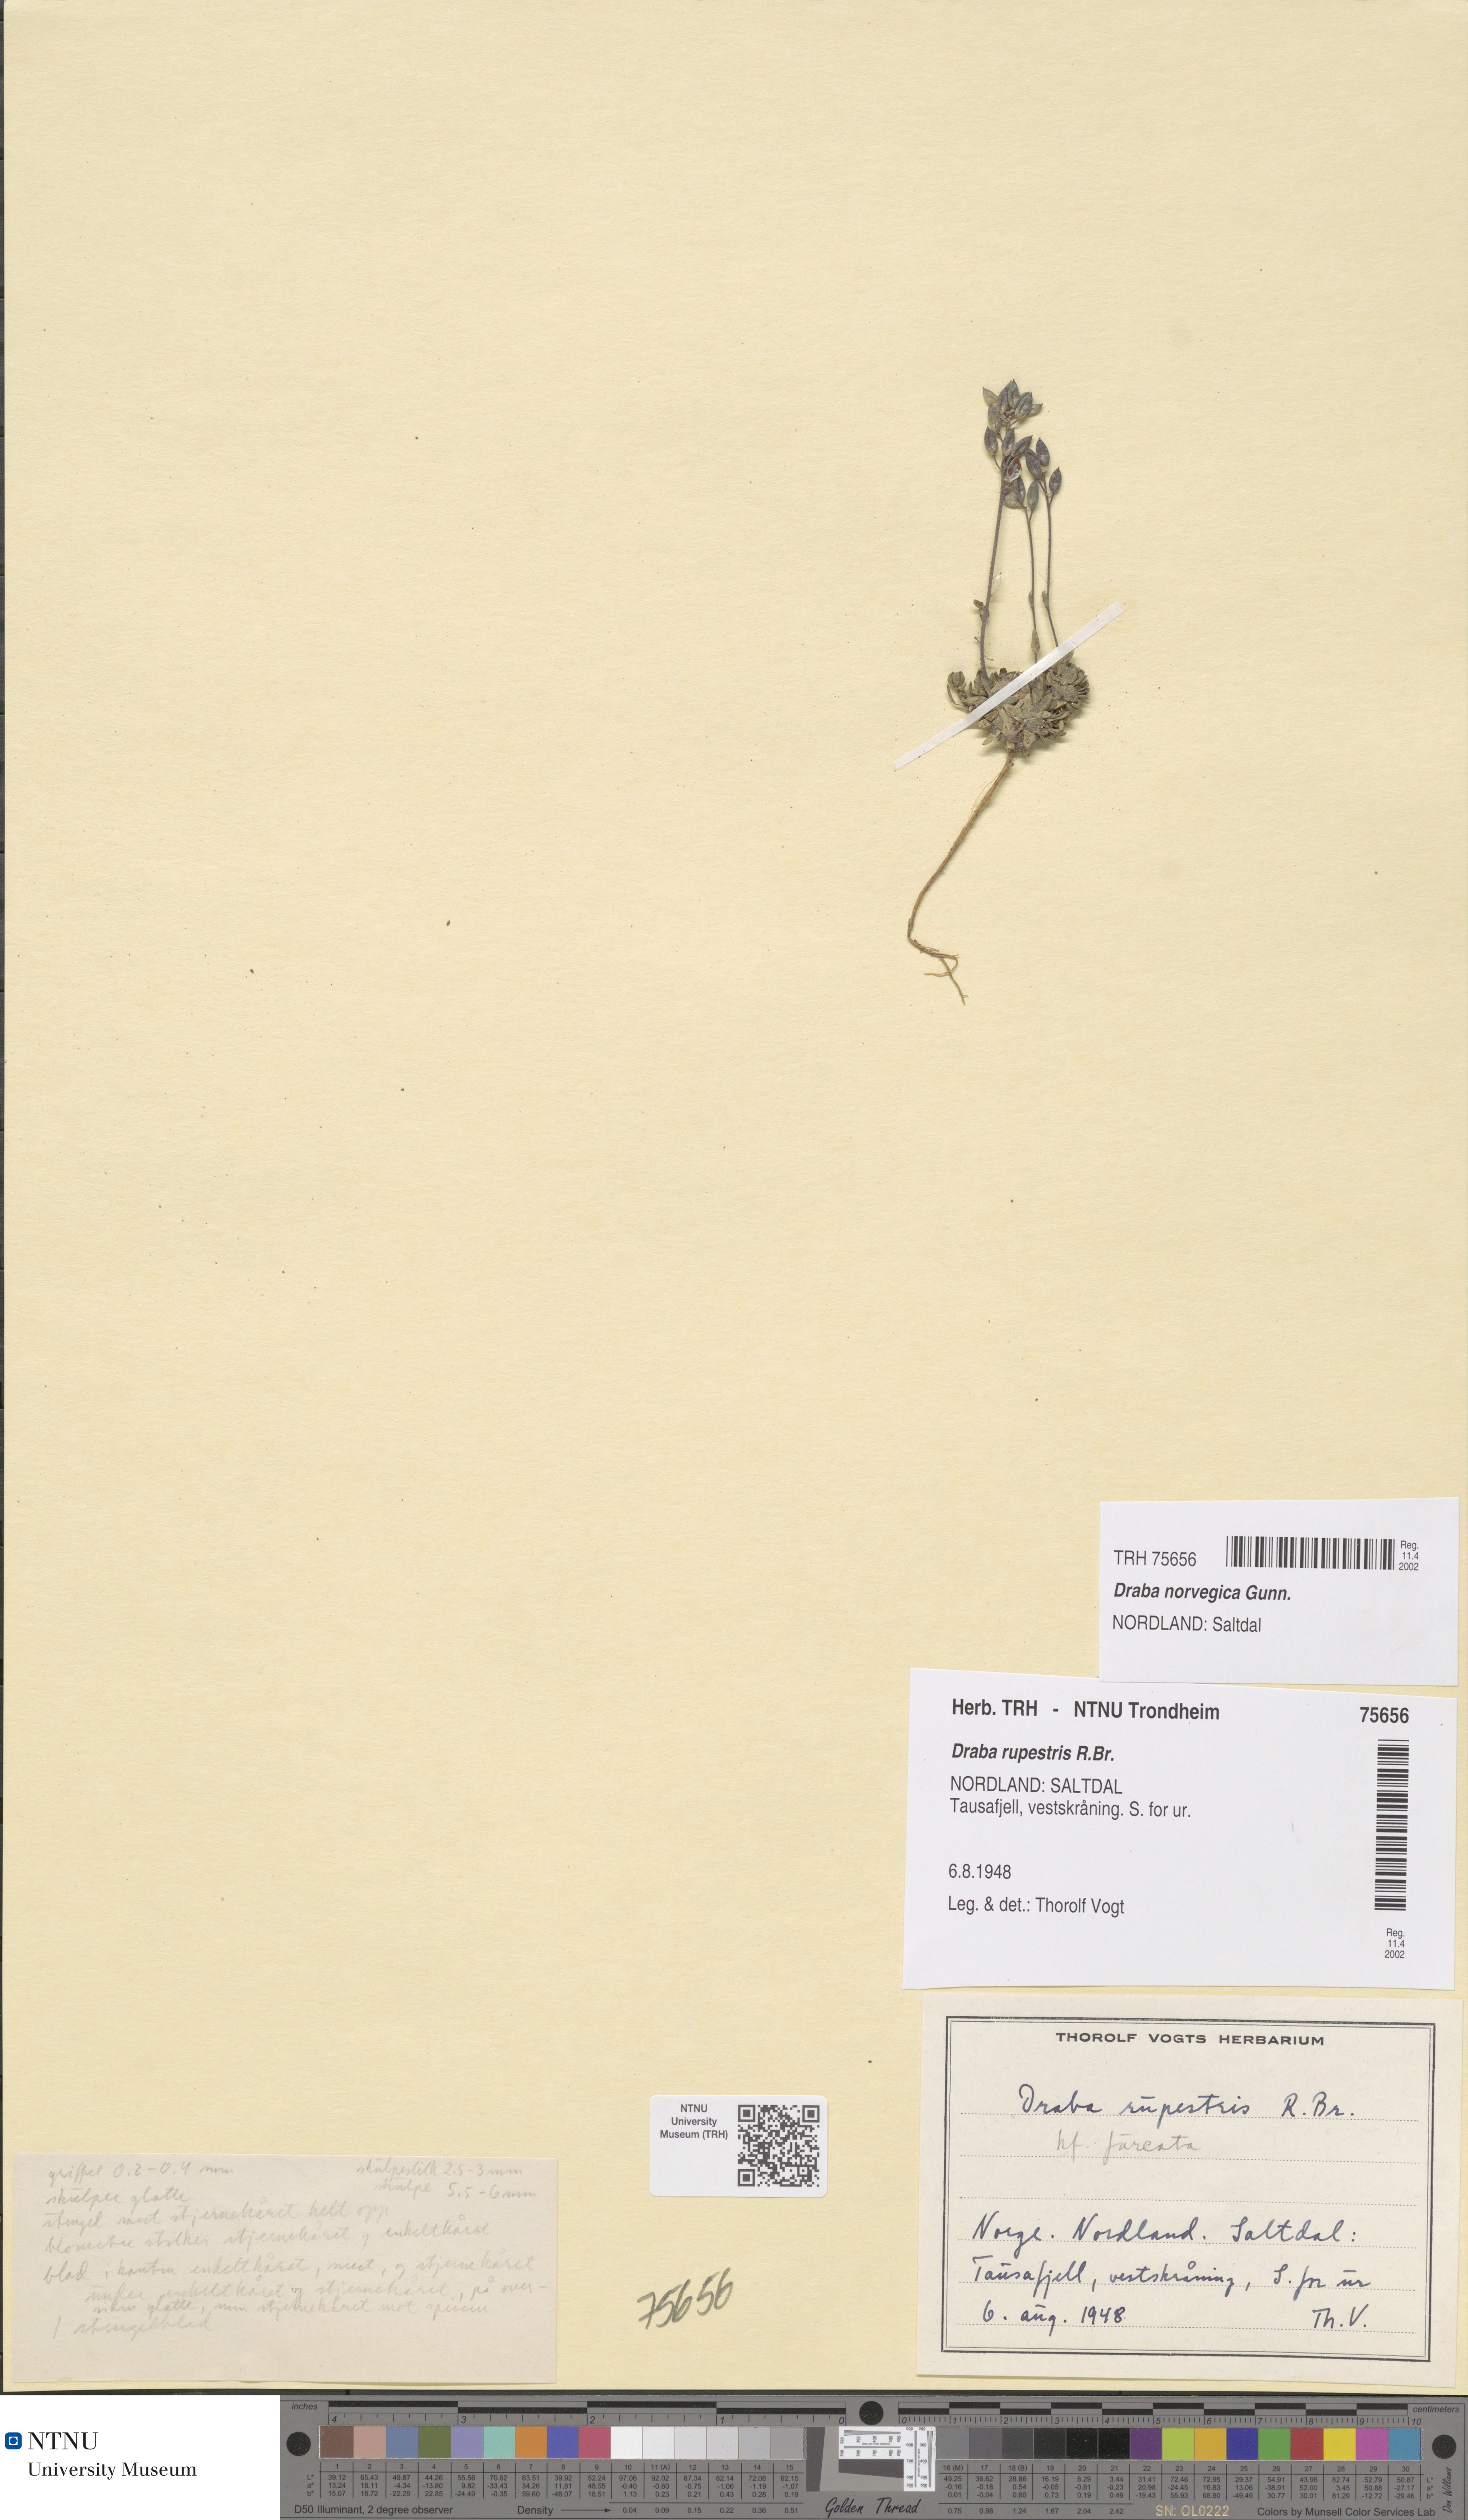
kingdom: Plantae
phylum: Tracheophyta
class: Magnoliopsida
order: Brassicales
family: Brassicaceae
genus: Draba
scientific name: Draba norvegica
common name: Rock whitlowgrass
